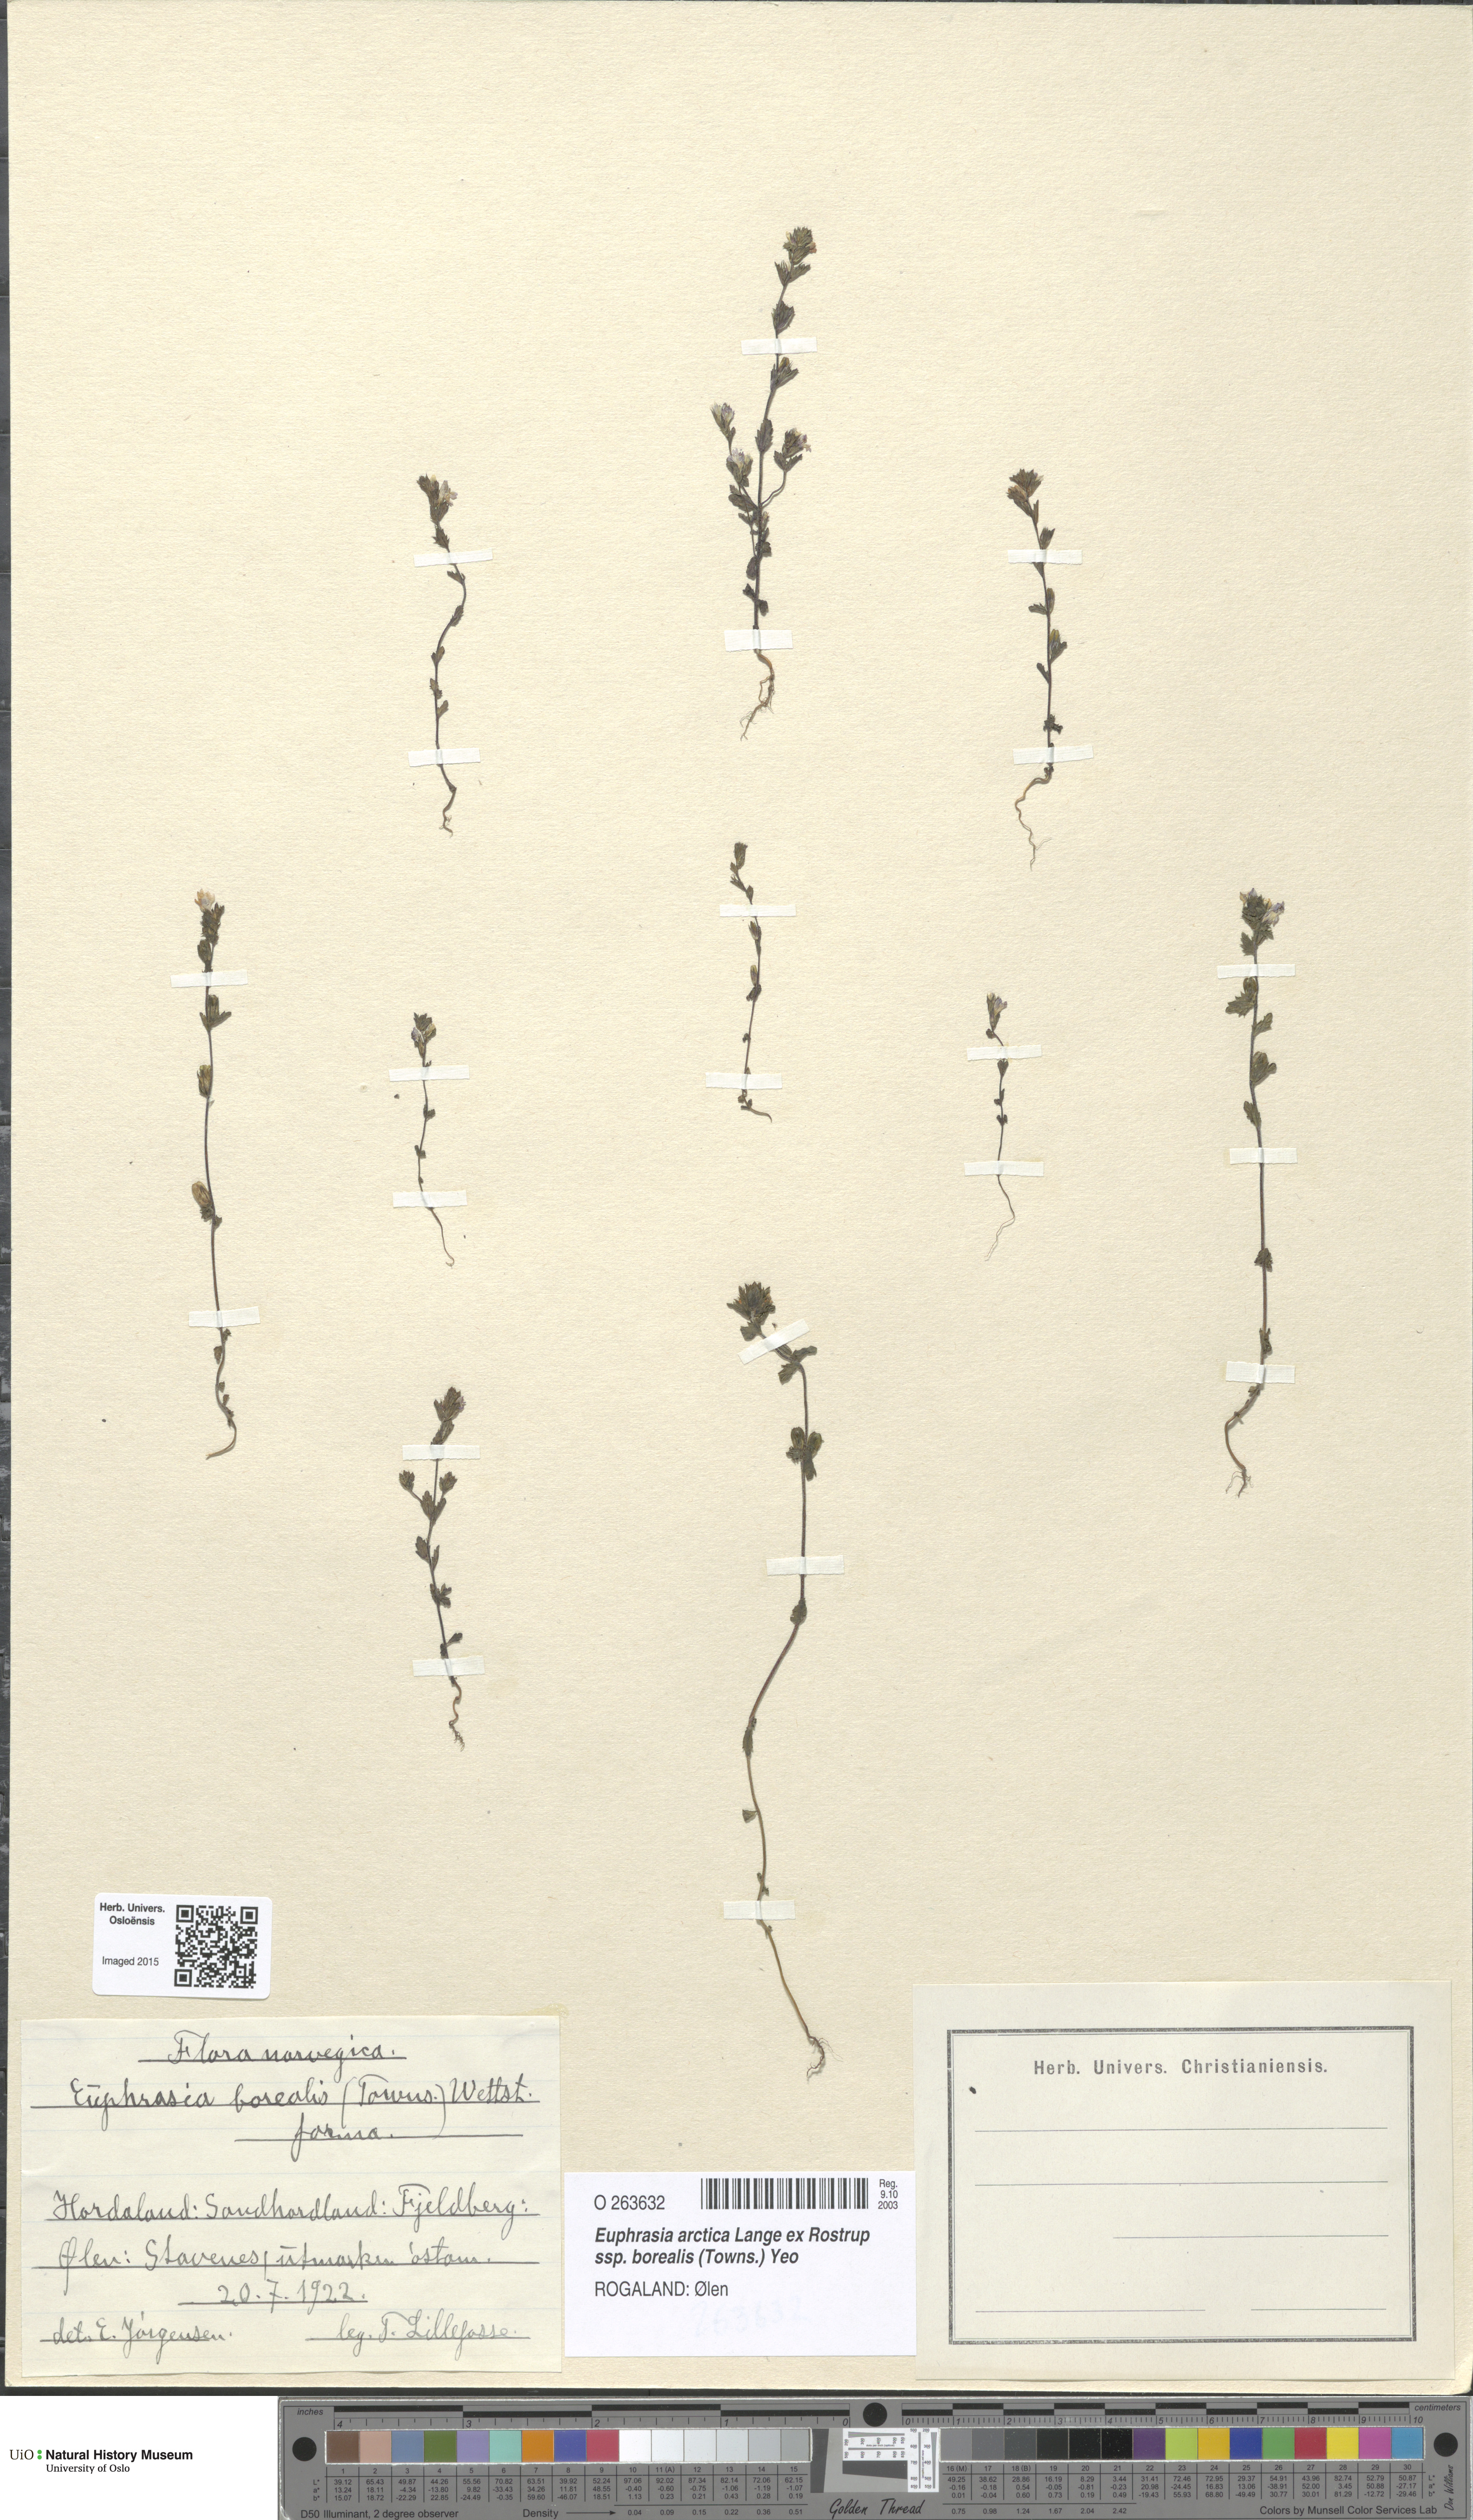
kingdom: Plantae
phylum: Tracheophyta
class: Magnoliopsida
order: Lamiales
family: Orobanchaceae
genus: Euphrasia
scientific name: Euphrasia arctica
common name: An eyebright
